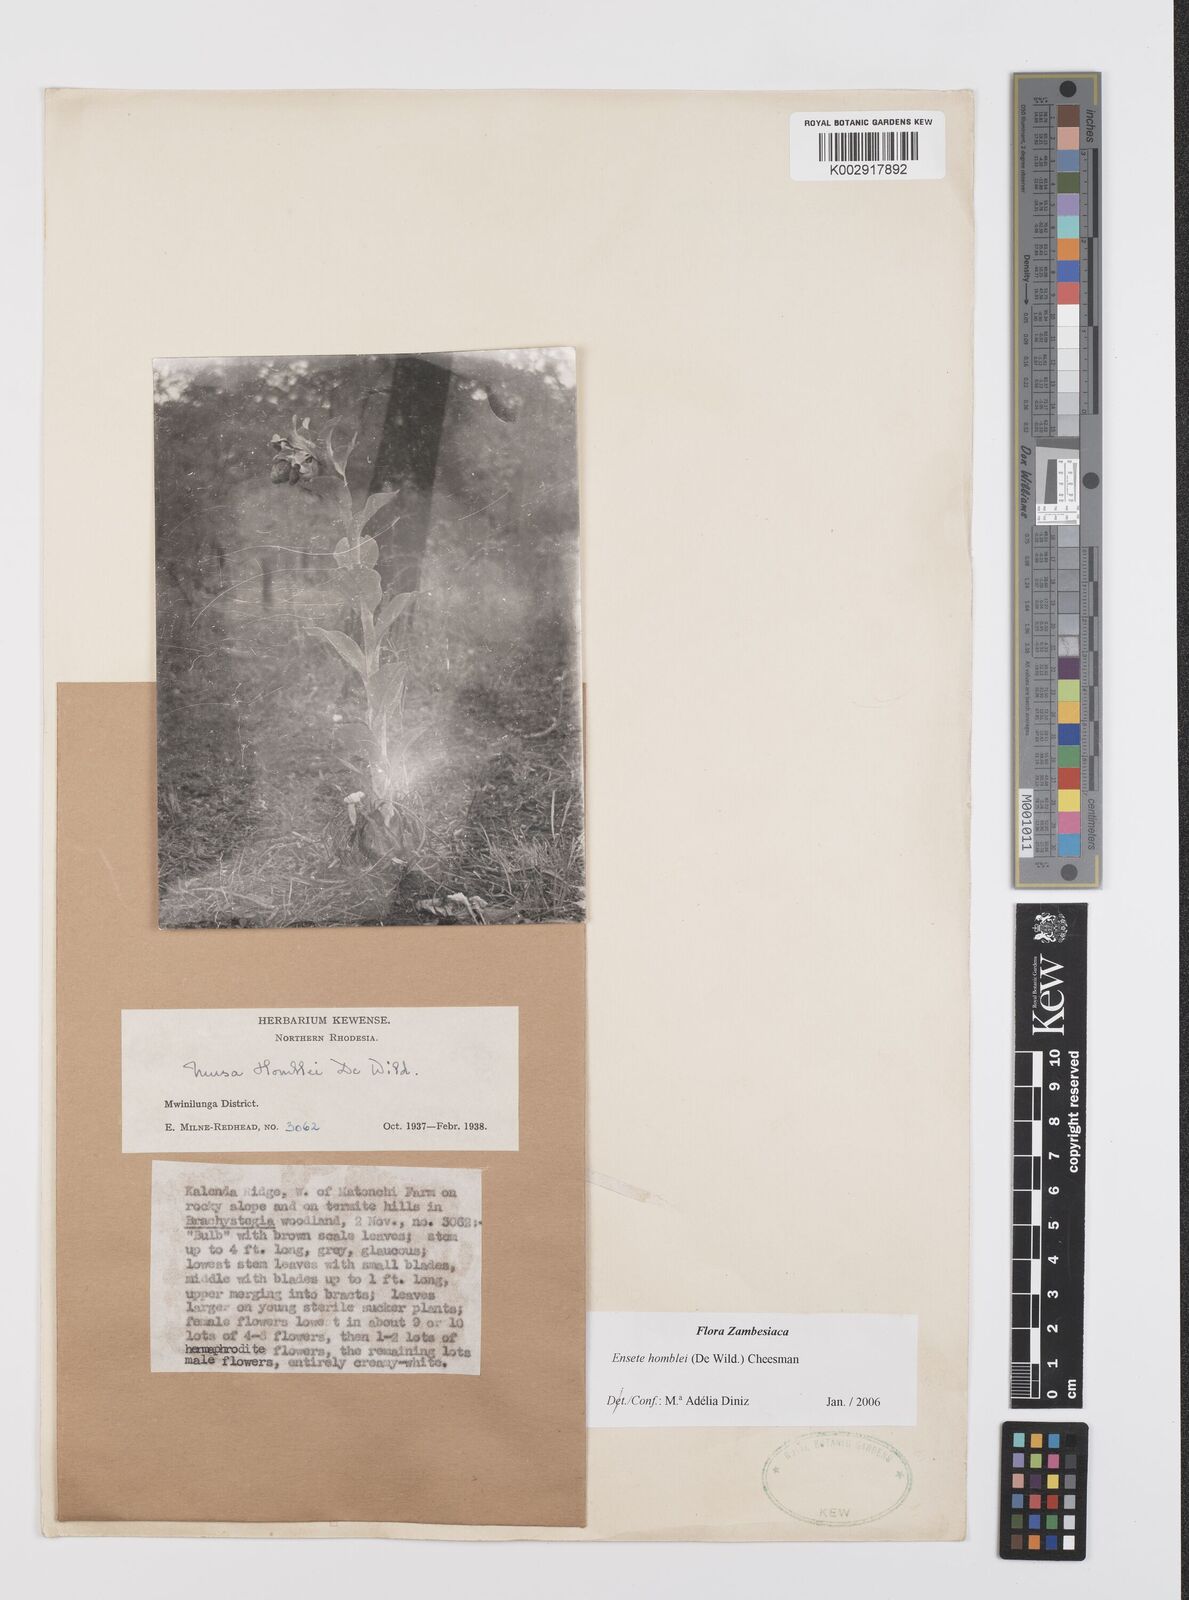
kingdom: Plantae
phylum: Tracheophyta
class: Liliopsida
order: Zingiberales
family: Musaceae
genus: Ensete
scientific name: Ensete homblei
